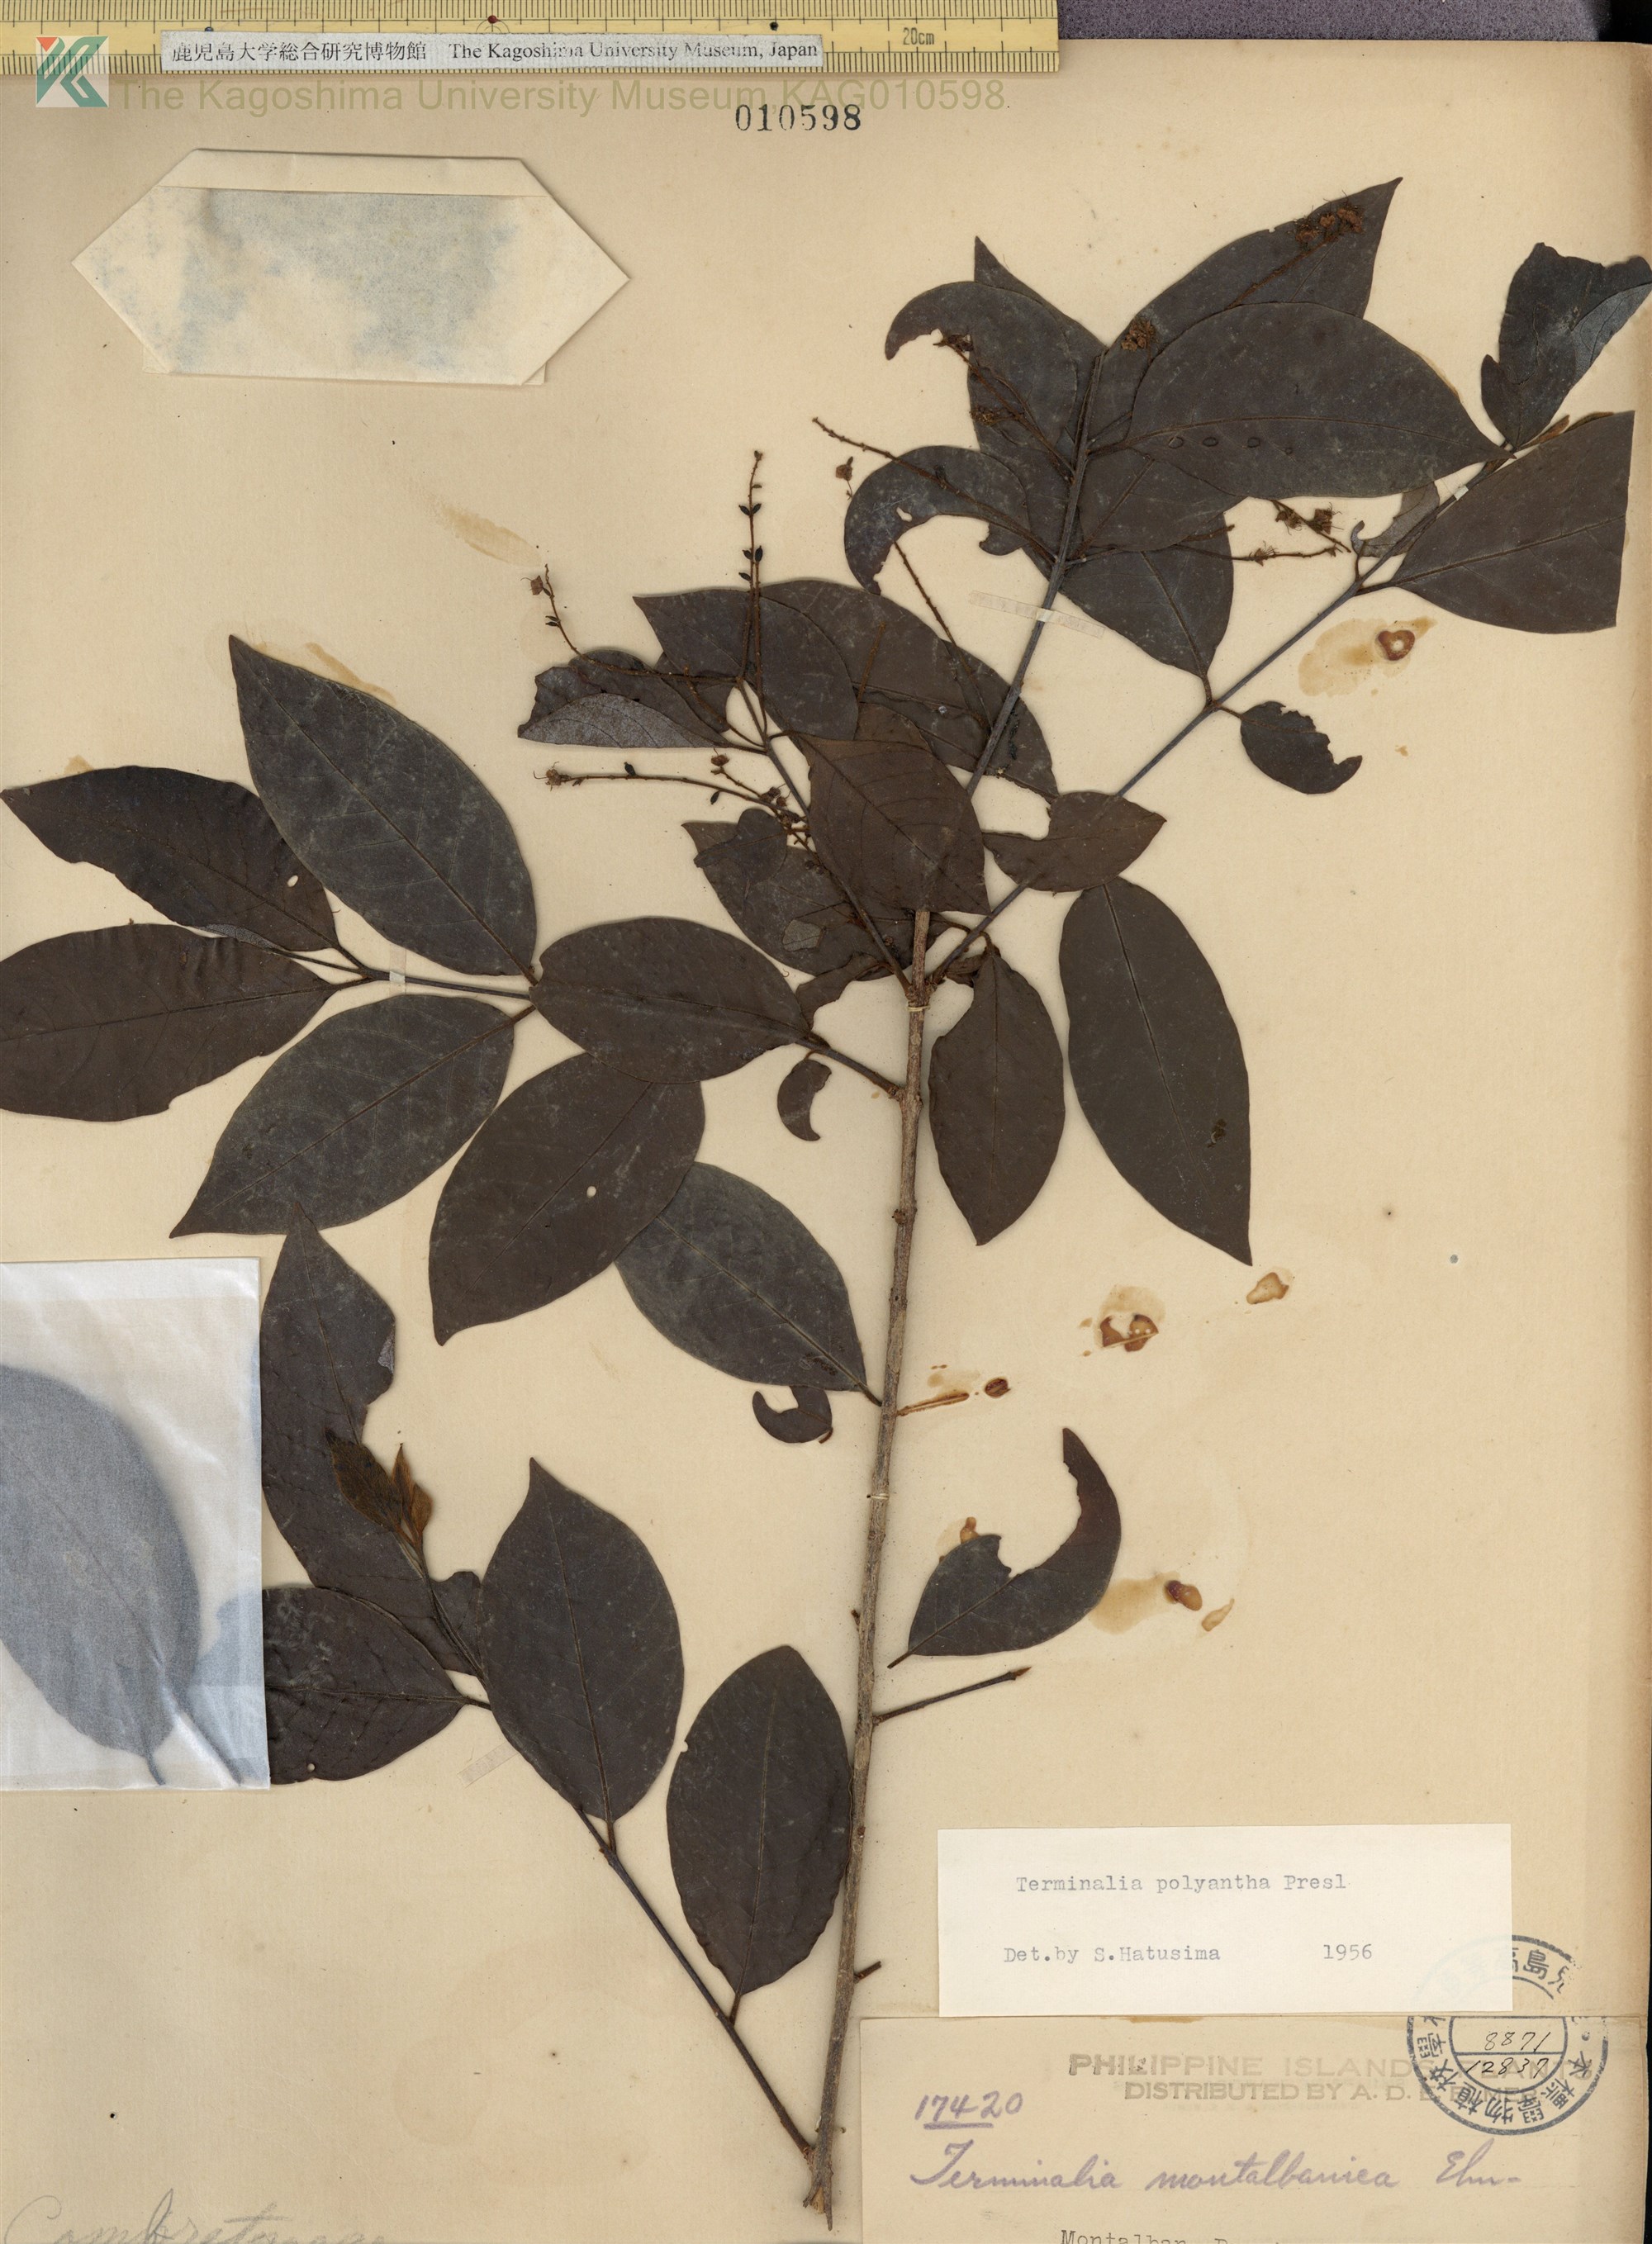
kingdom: Plantae
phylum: Tracheophyta
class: Magnoliopsida
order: Myrtales
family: Combretaceae
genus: Terminalia
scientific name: Terminalia polyantha
